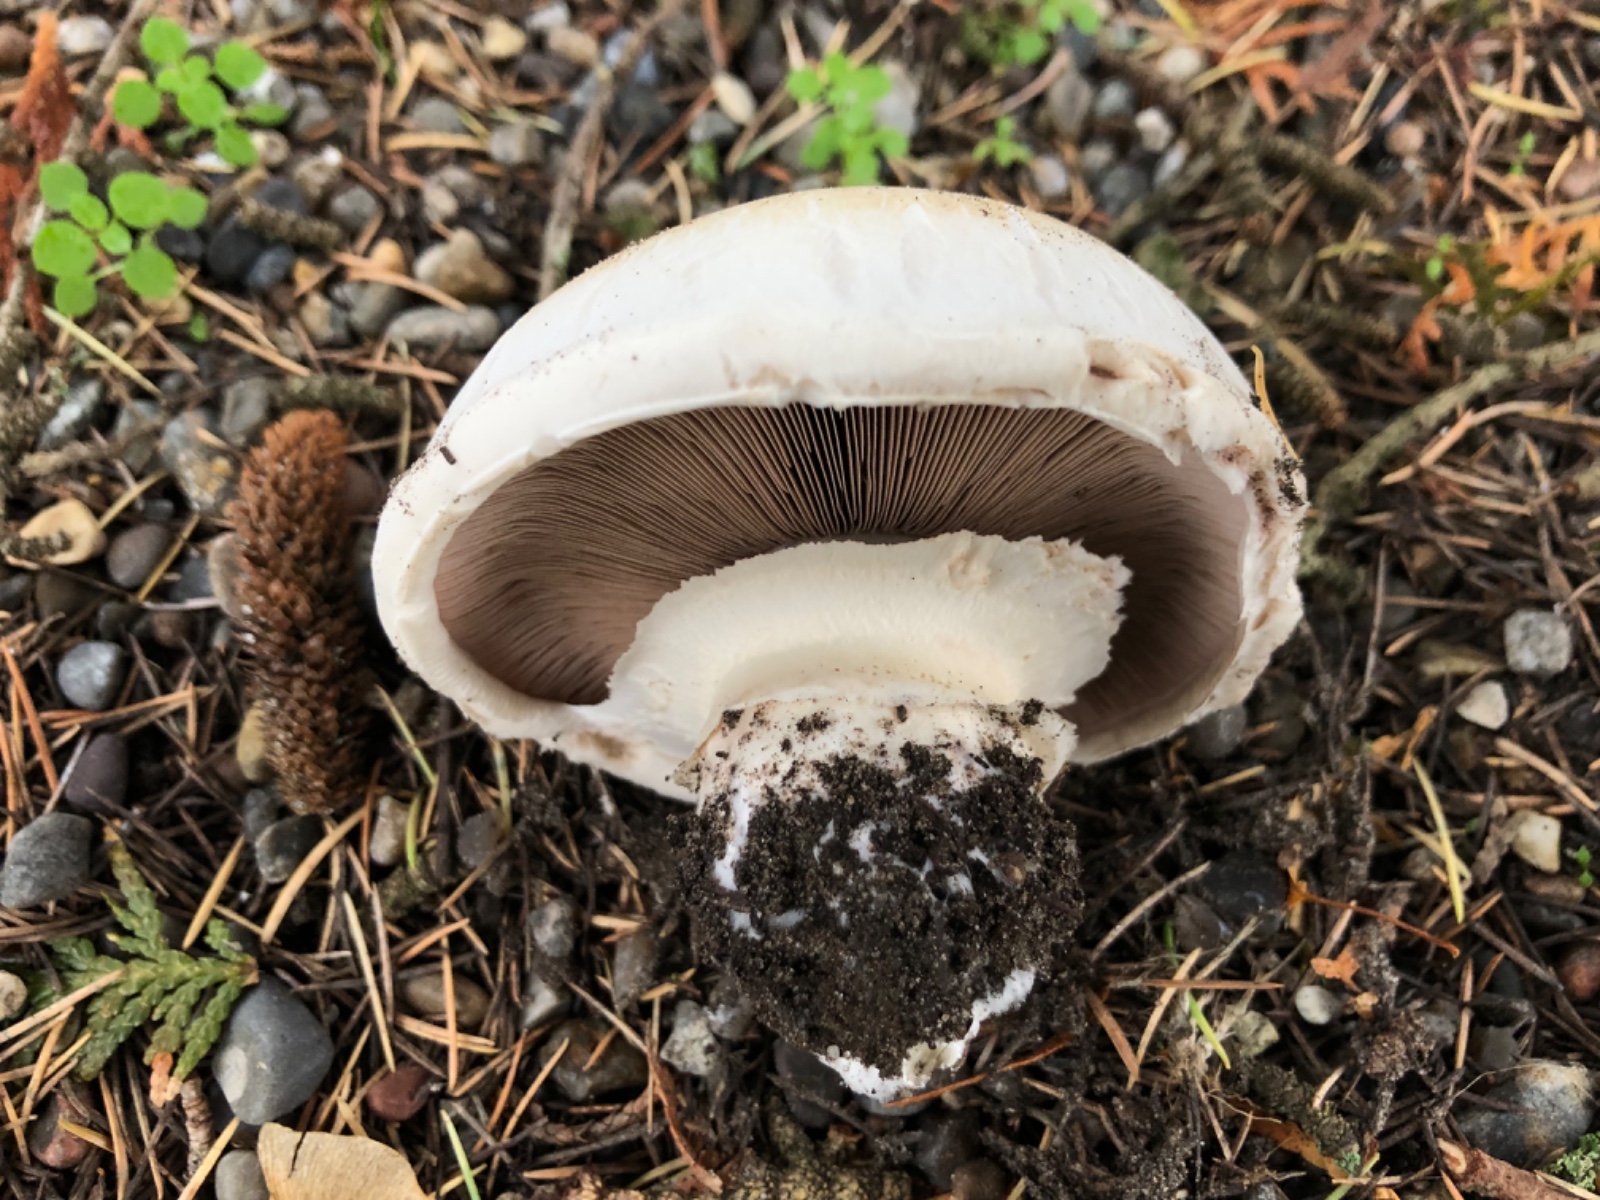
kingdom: Fungi
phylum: Basidiomycota
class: Agaricomycetes
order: Agaricales
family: Agaricaceae
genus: Agaricus
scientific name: Agaricus bitorquis
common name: vej-champignon
